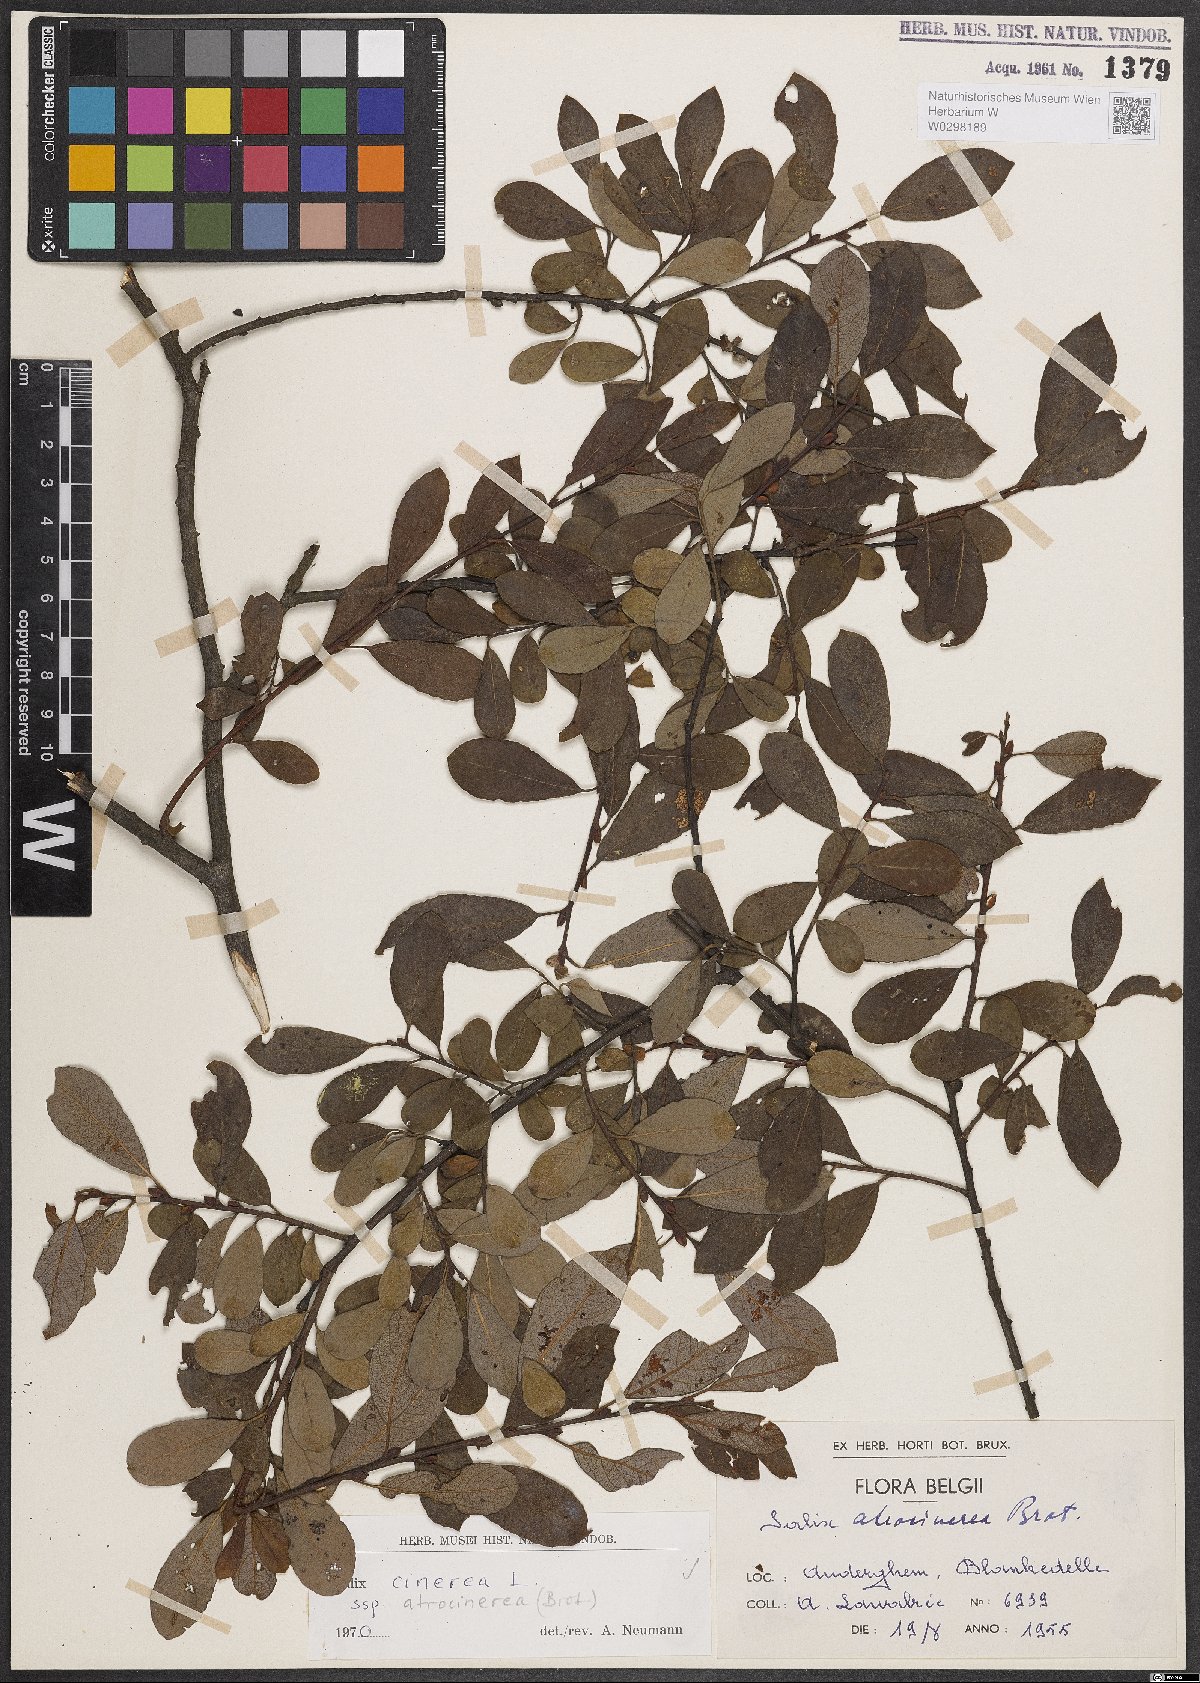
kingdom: Plantae
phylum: Tracheophyta
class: Magnoliopsida
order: Malpighiales
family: Salicaceae
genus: Salix
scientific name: Salix atrocinerea
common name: Rusty willow
